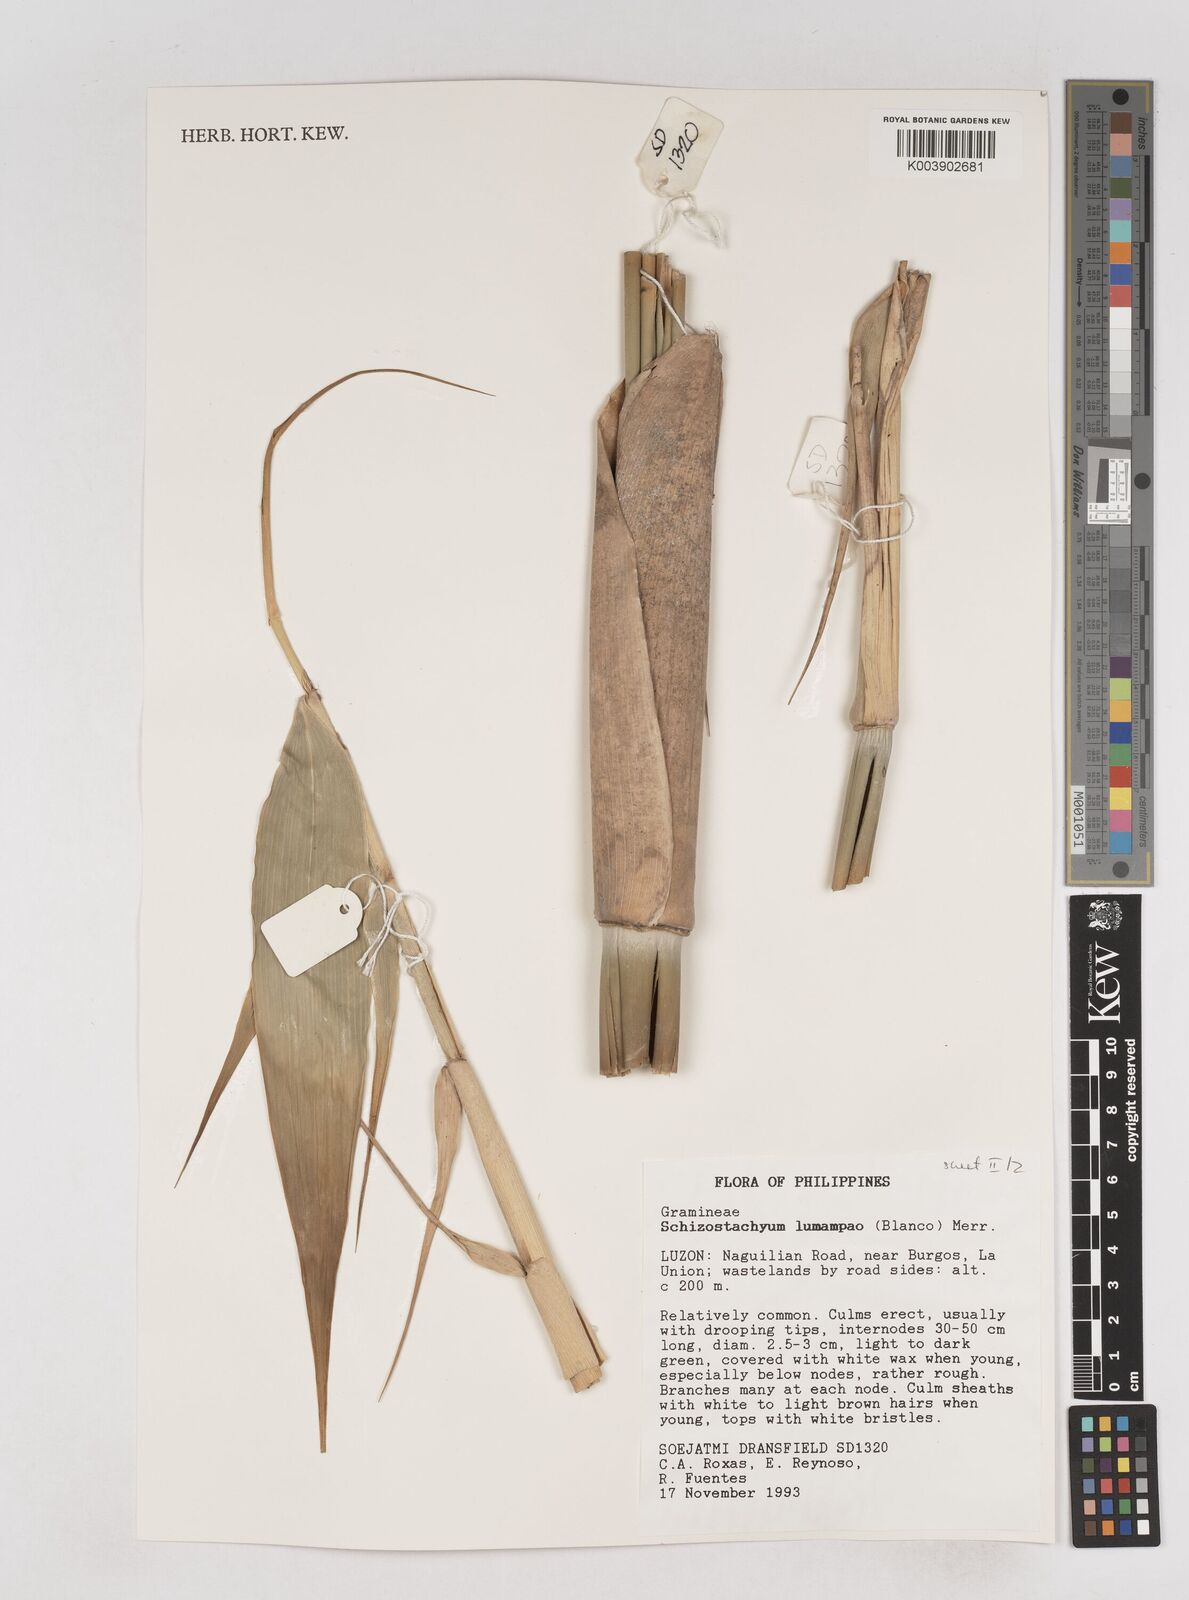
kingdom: Plantae
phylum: Tracheophyta
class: Liliopsida
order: Poales
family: Poaceae
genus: Schizostachyum
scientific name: Schizostachyum lumampao
